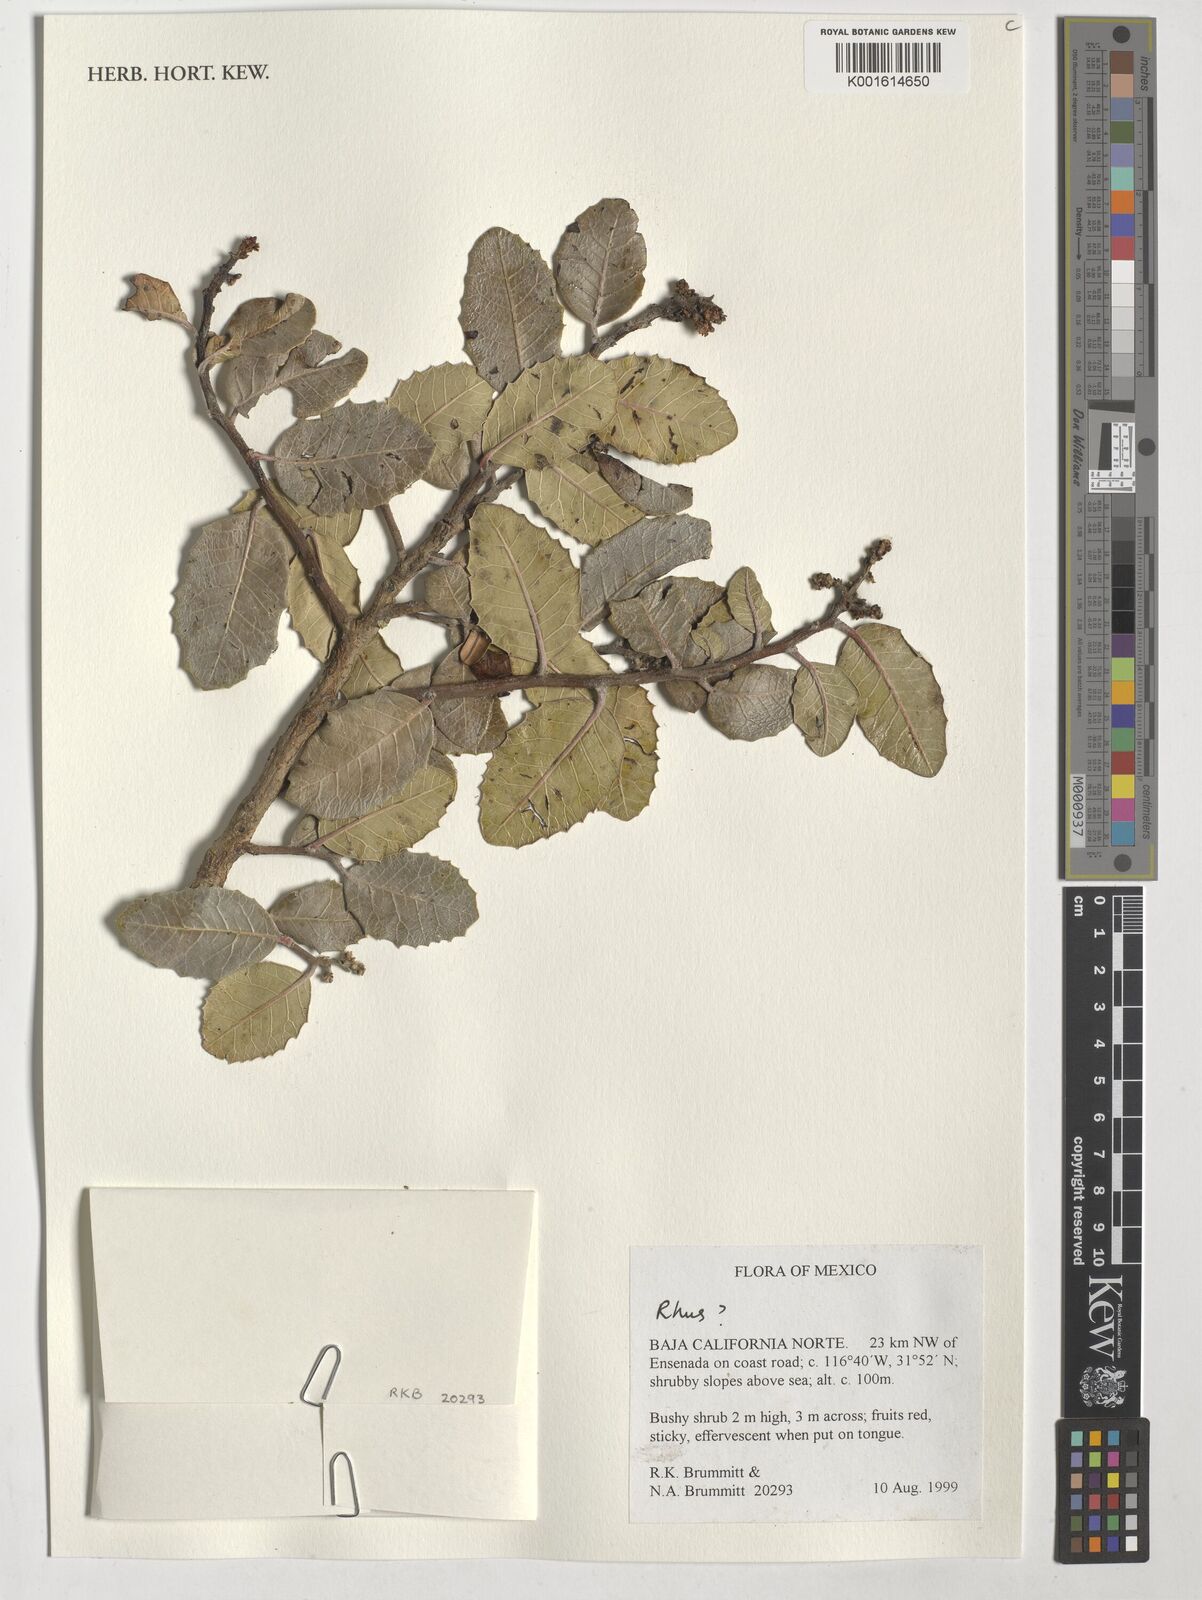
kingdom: Plantae
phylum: Tracheophyta
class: Magnoliopsida
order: Sapindales
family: Anacardiaceae
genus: Rhus
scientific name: Rhus
